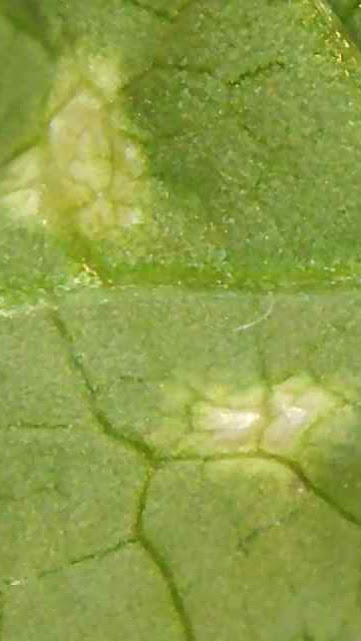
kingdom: Fungi
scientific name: Fungi
